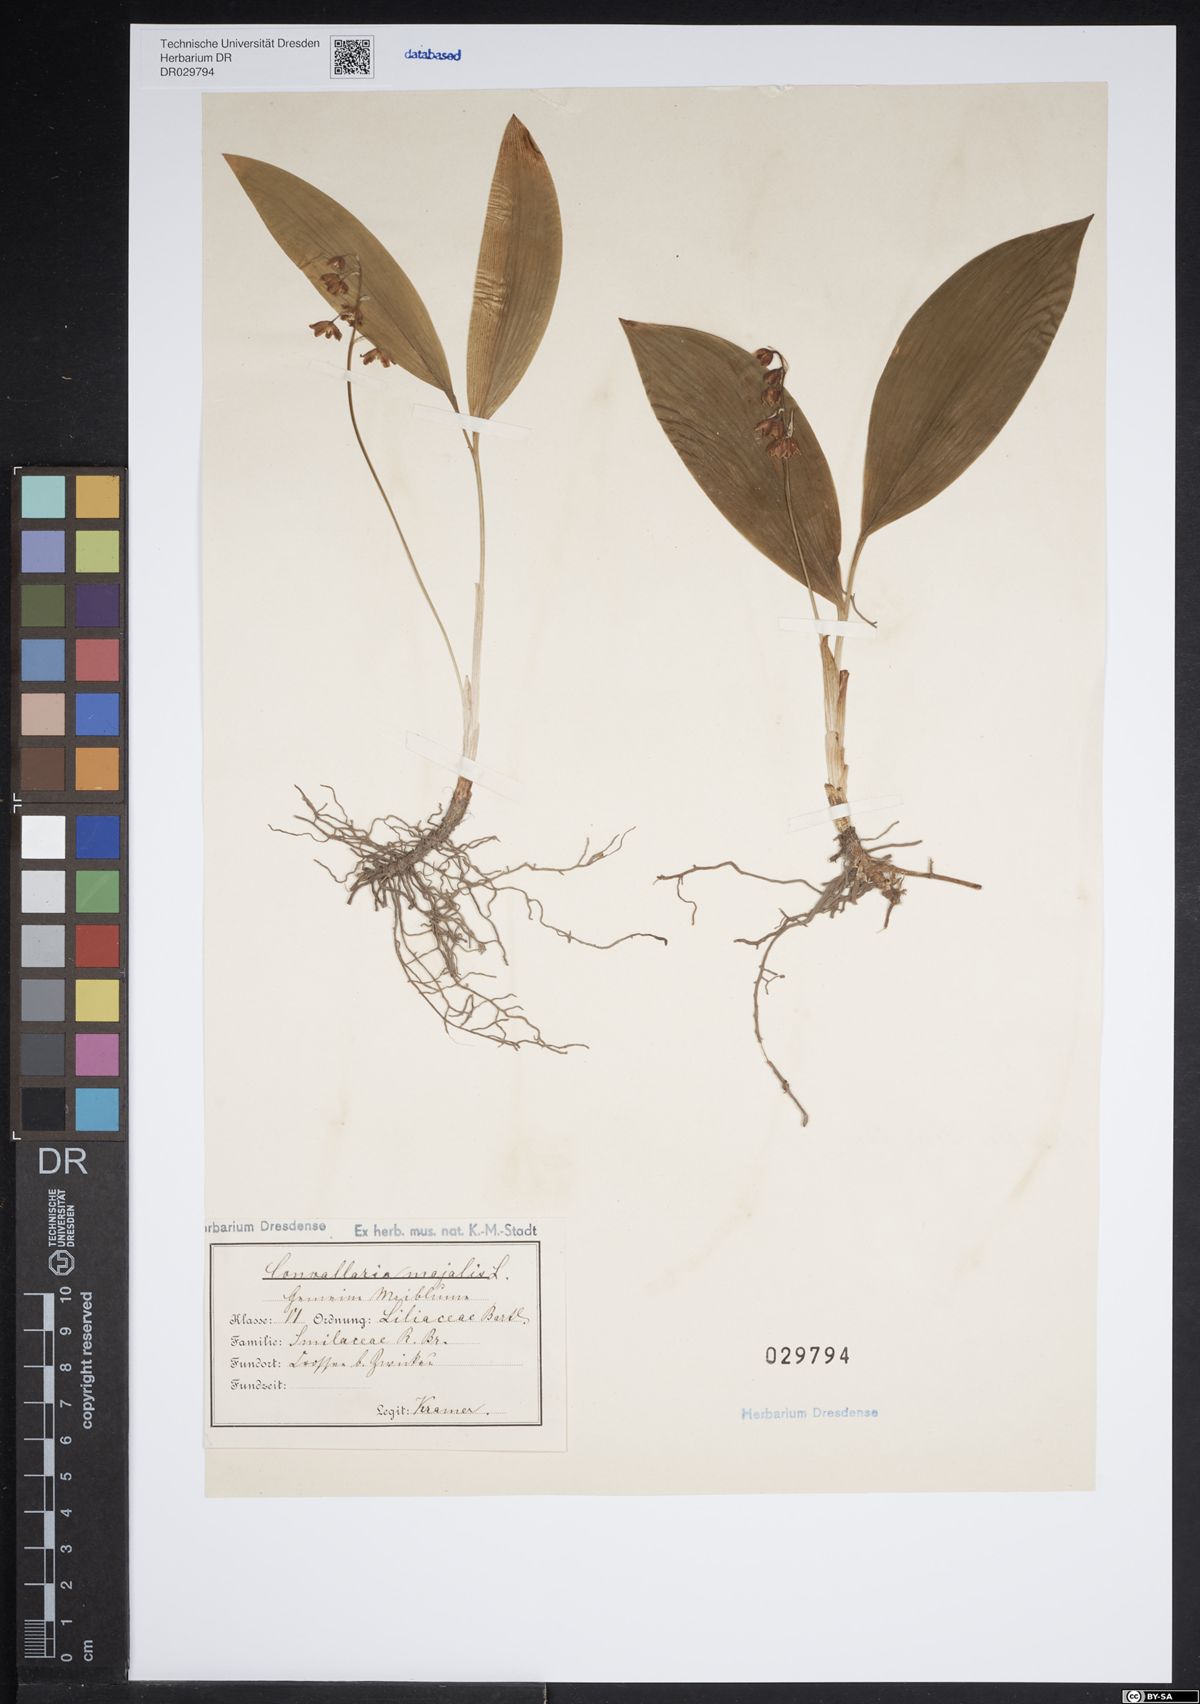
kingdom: Plantae
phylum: Tracheophyta
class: Liliopsida
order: Asparagales
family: Asparagaceae
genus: Convallaria
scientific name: Convallaria majalis
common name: Lily-of-the-valley
